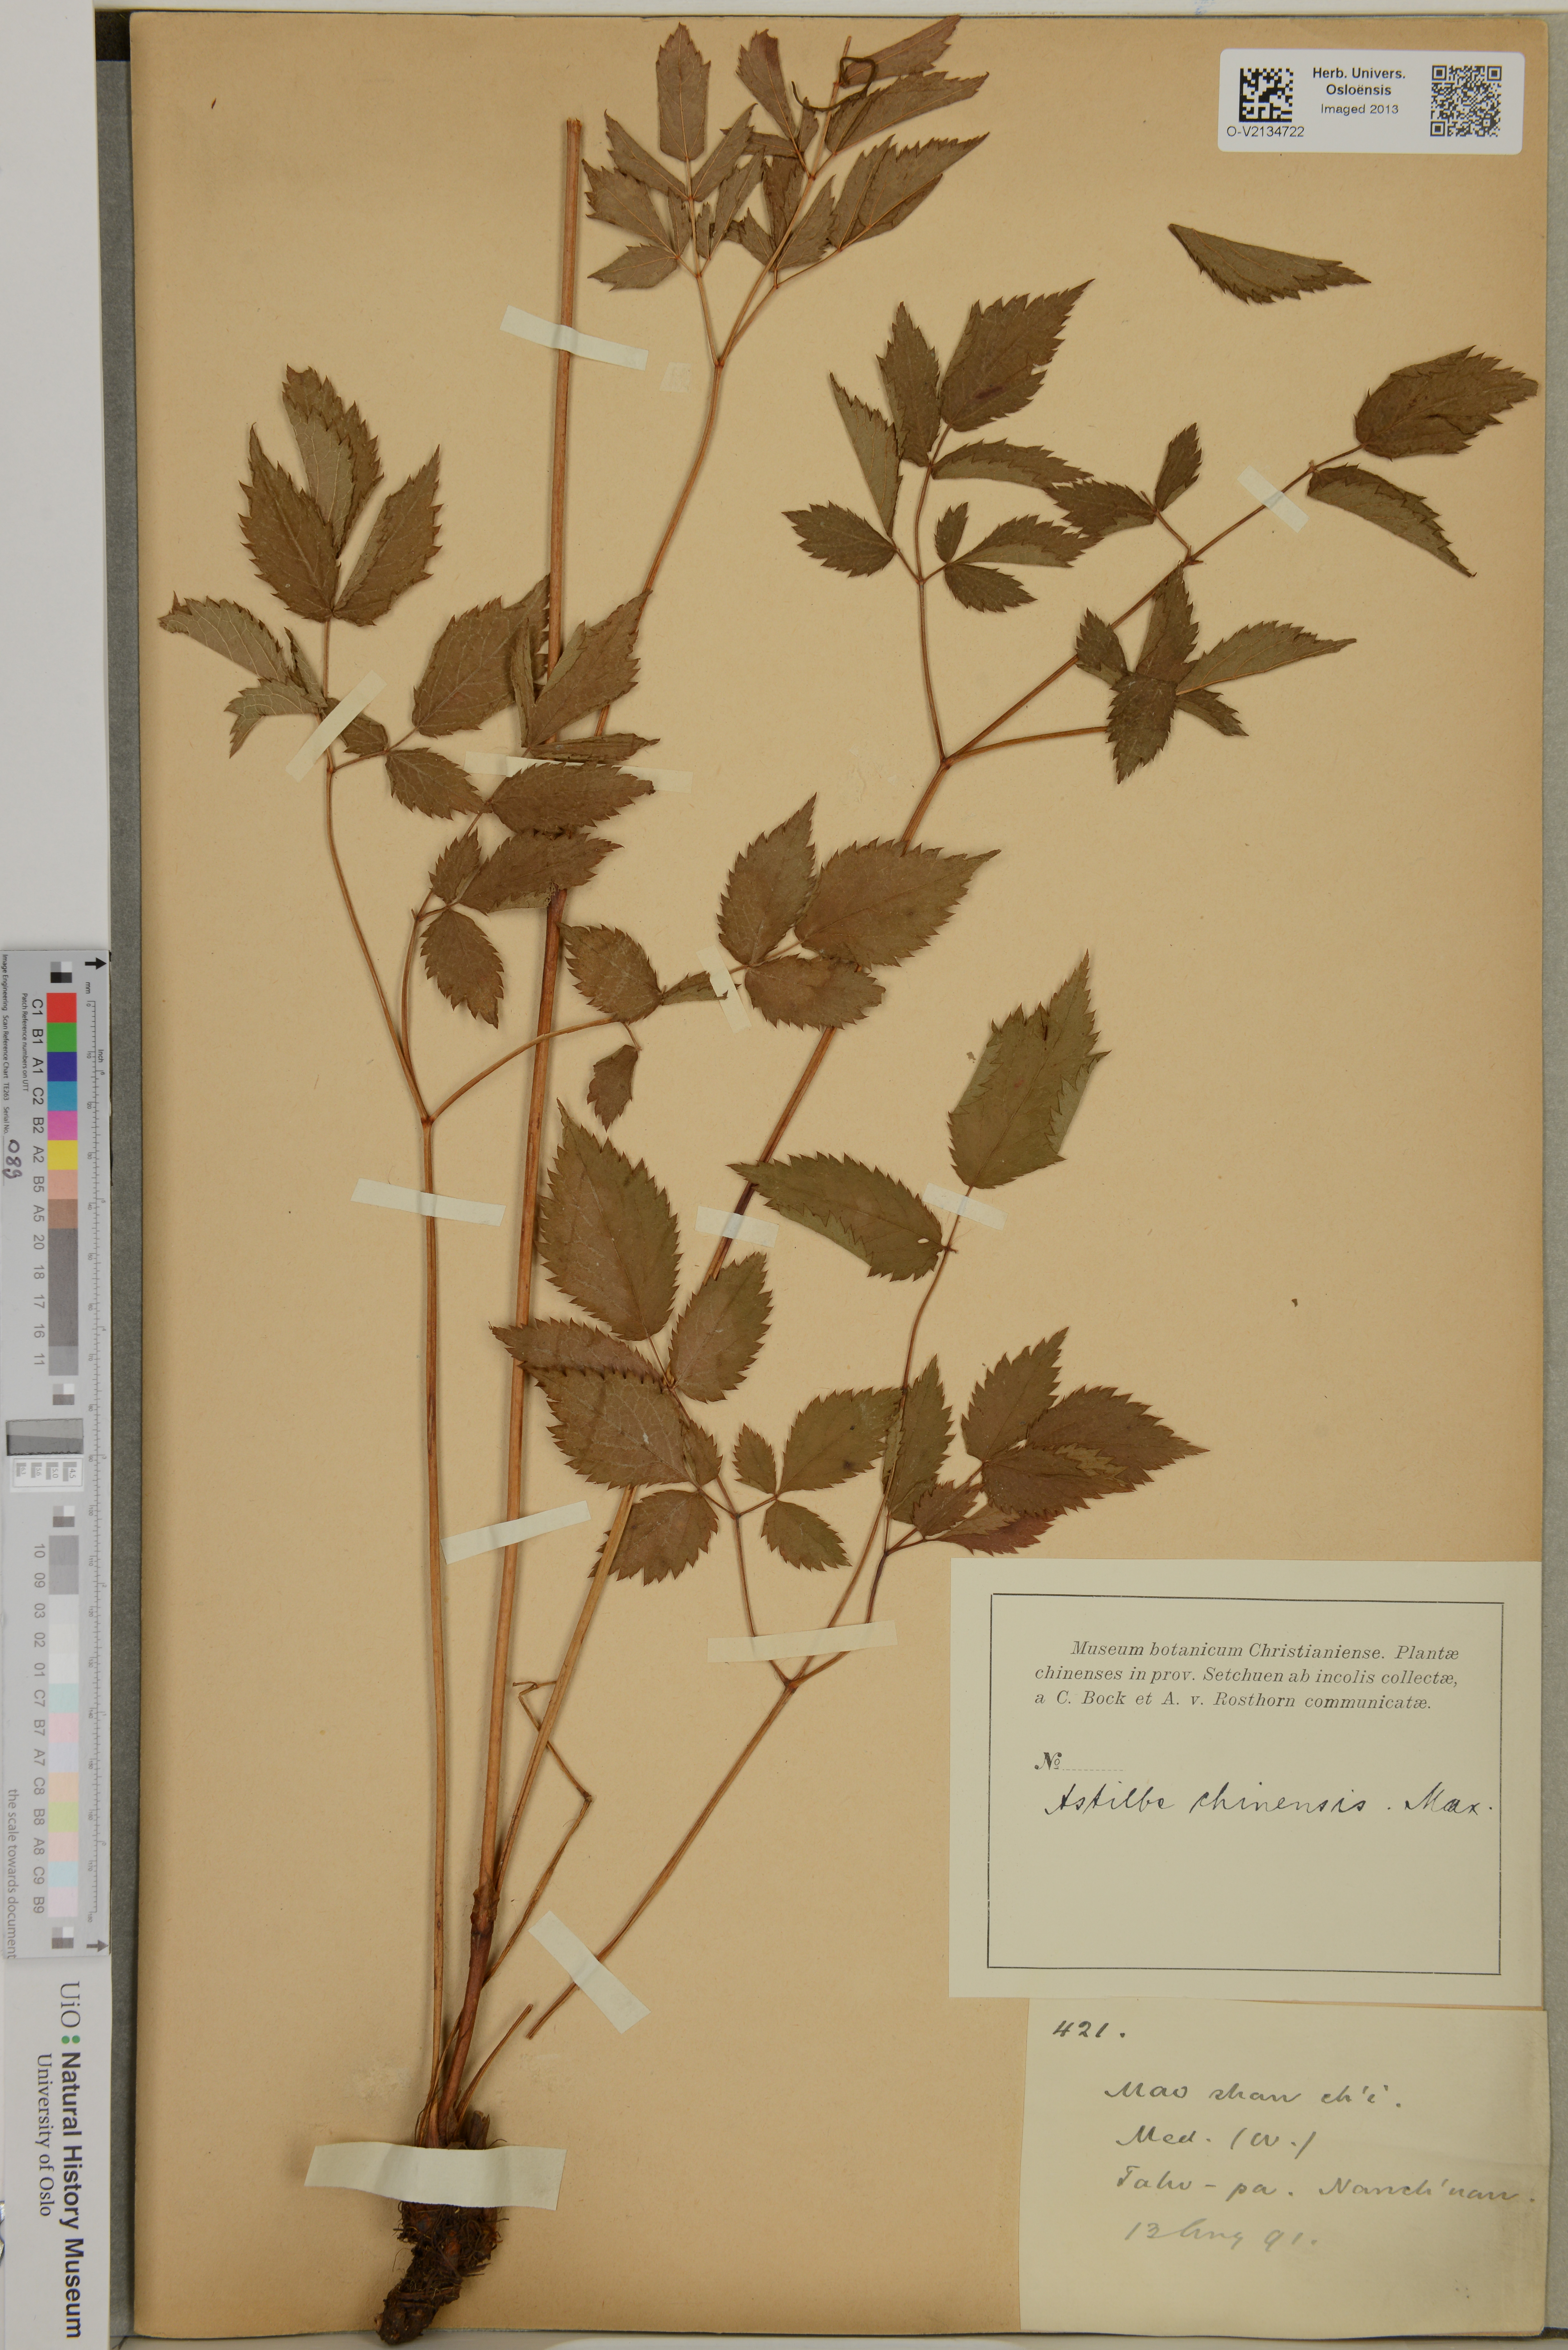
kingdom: Plantae
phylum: Tracheophyta
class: Magnoliopsida
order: Saxifragales
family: Saxifragaceae
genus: Astilbe
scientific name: Astilbe rubra
